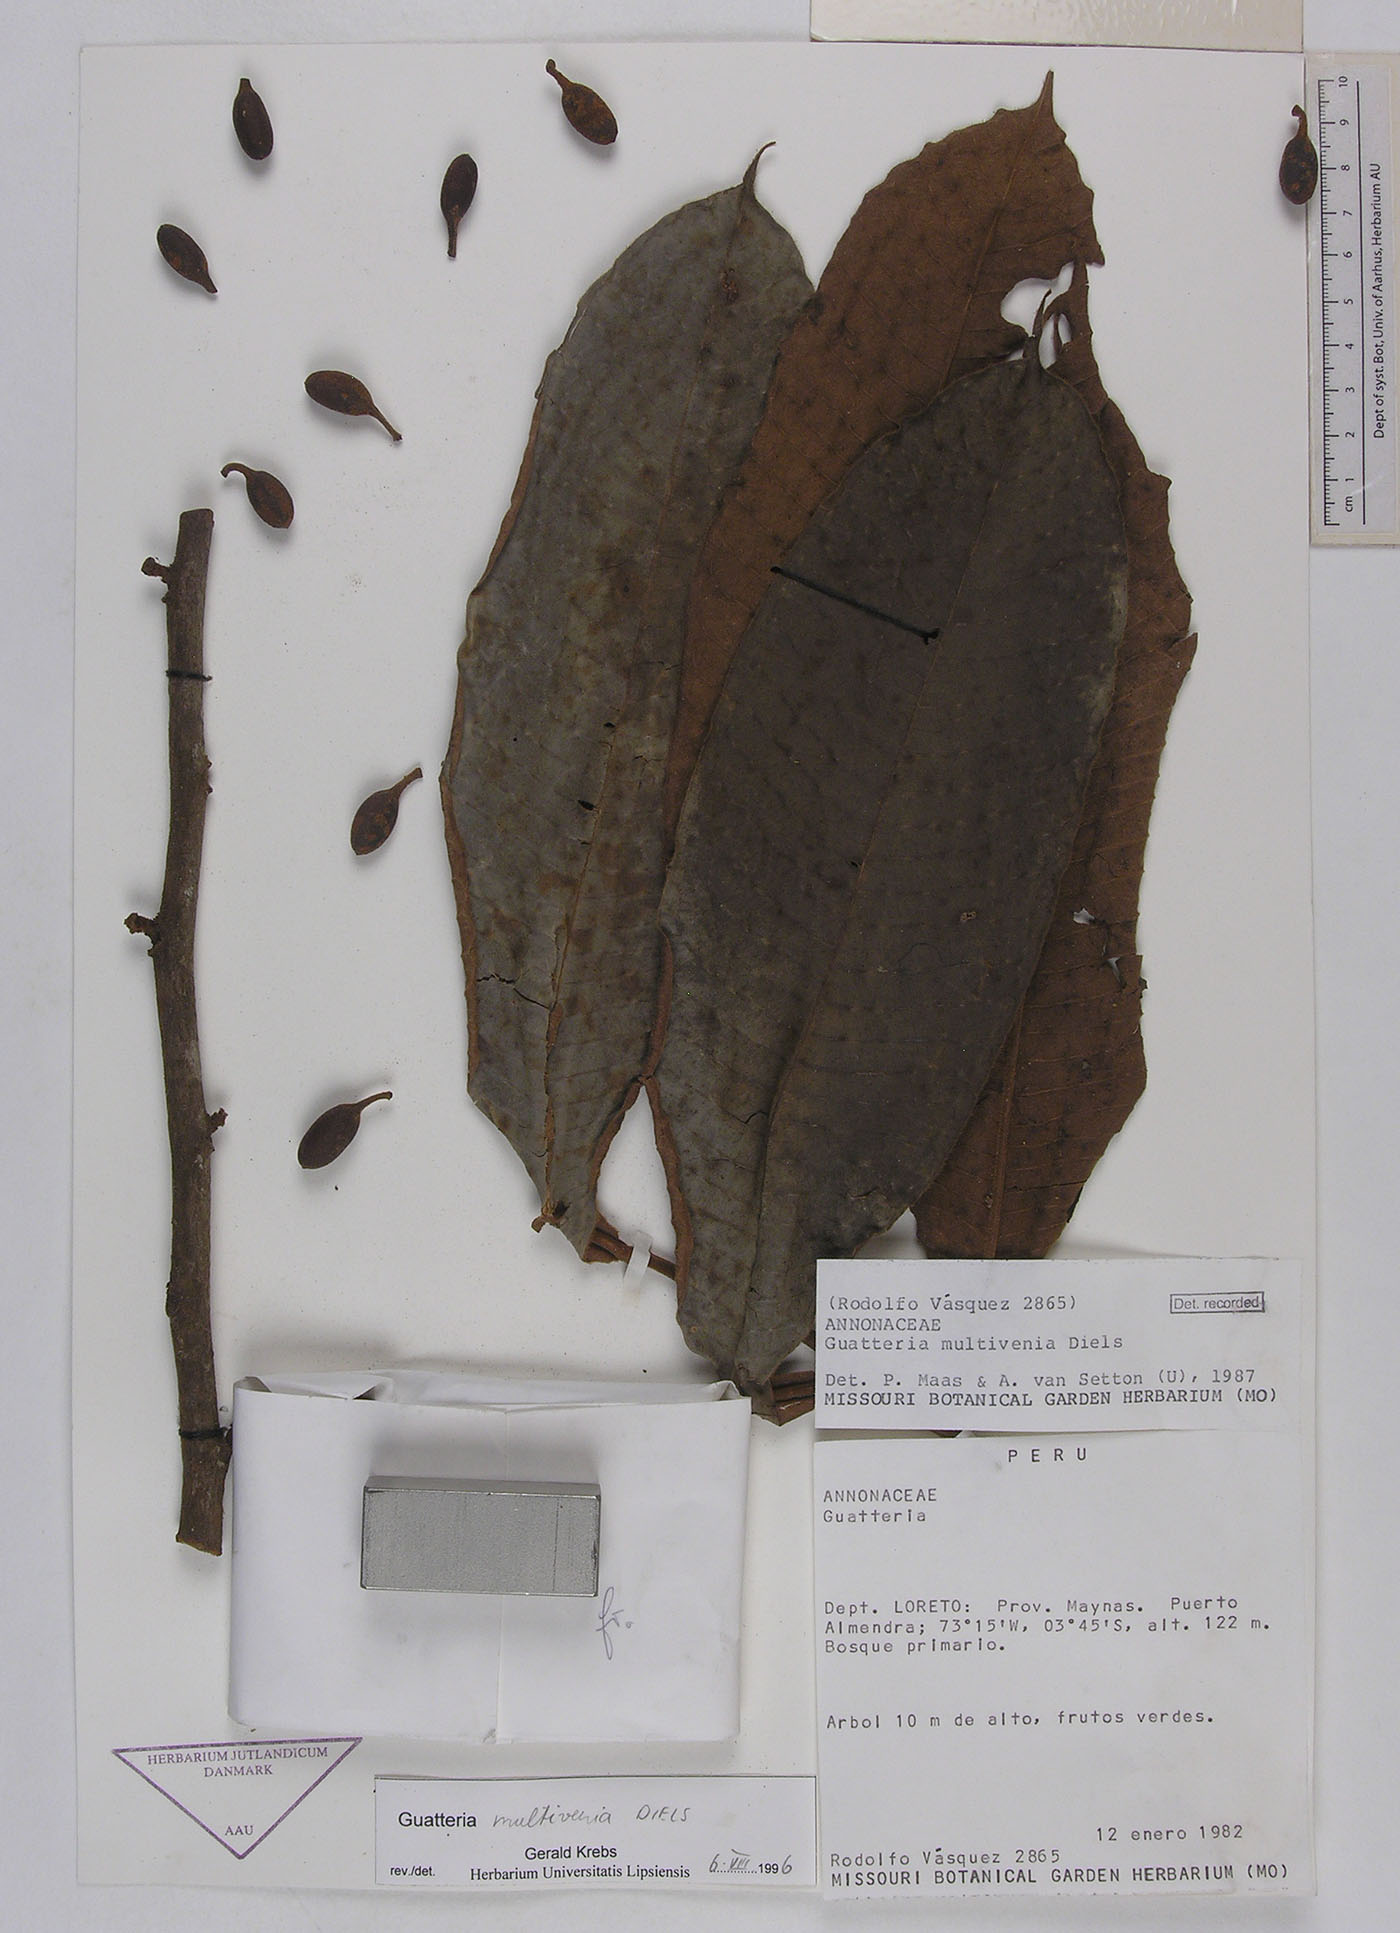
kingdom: Plantae
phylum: Tracheophyta
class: Magnoliopsida
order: Magnoliales
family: Annonaceae
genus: Guatteria
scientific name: Guatteria guianensis
